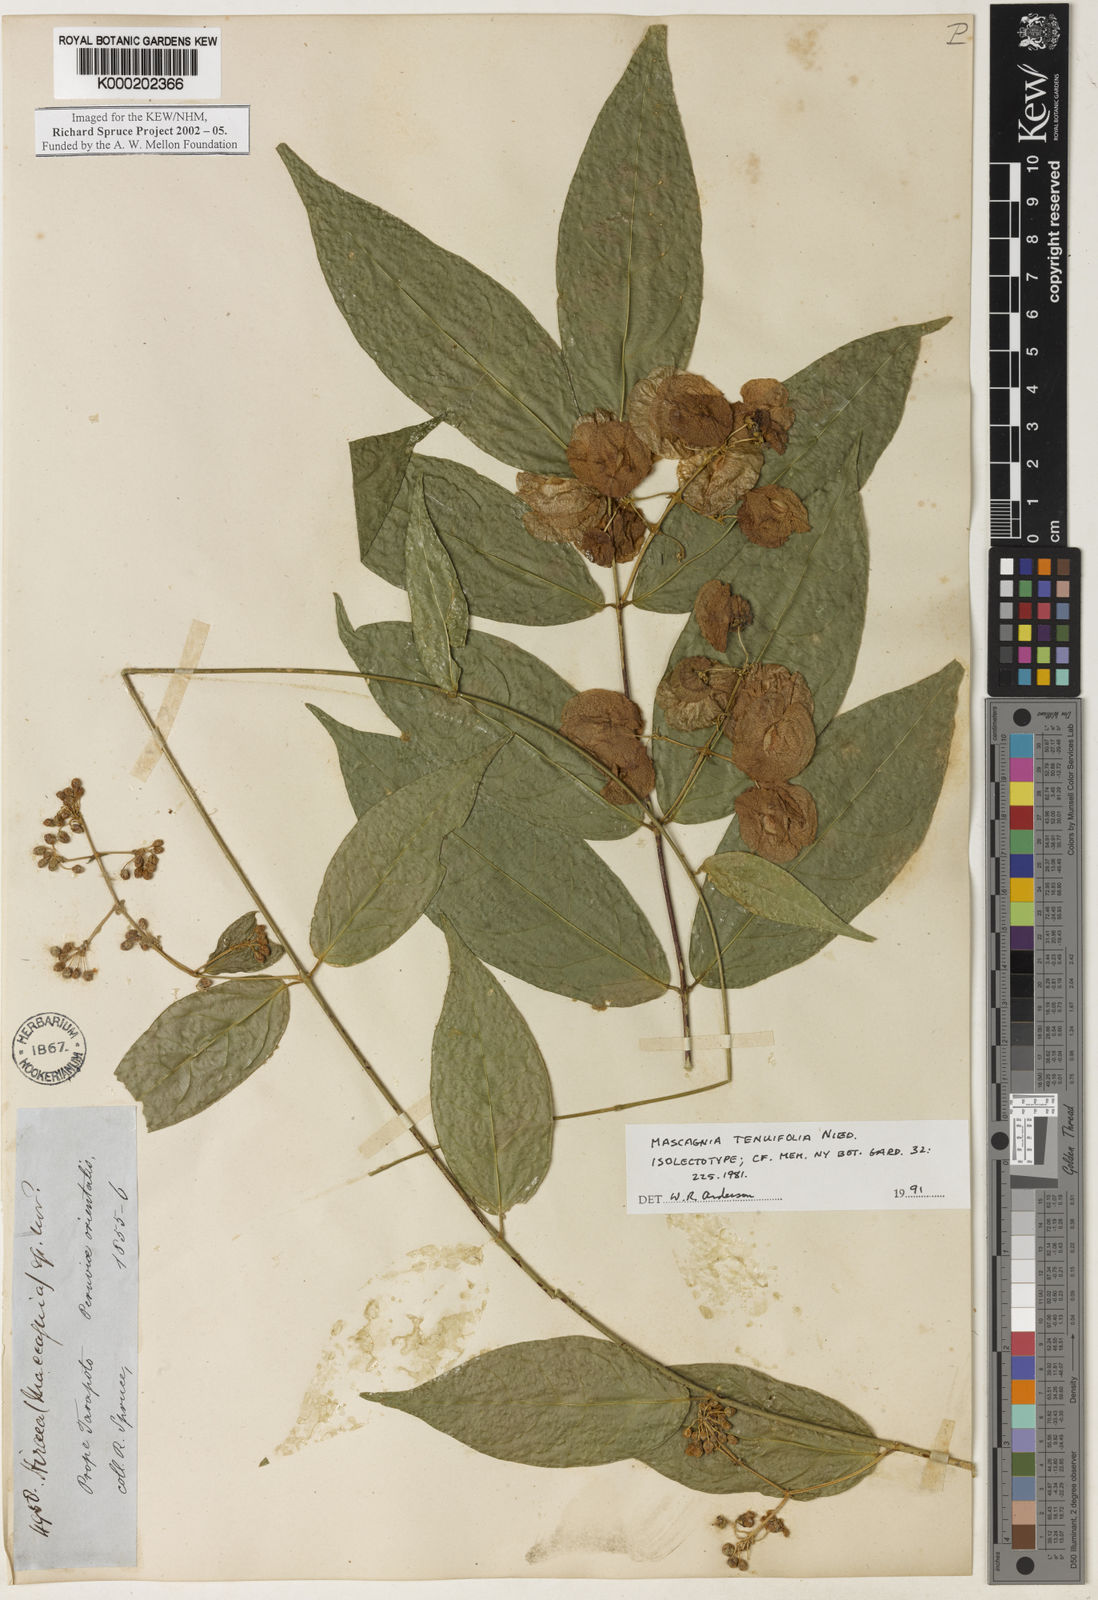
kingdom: Plantae
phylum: Tracheophyta
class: Magnoliopsida
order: Malpighiales
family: Malpighiaceae
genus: Mascagnia
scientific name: Mascagnia tenuifolia
